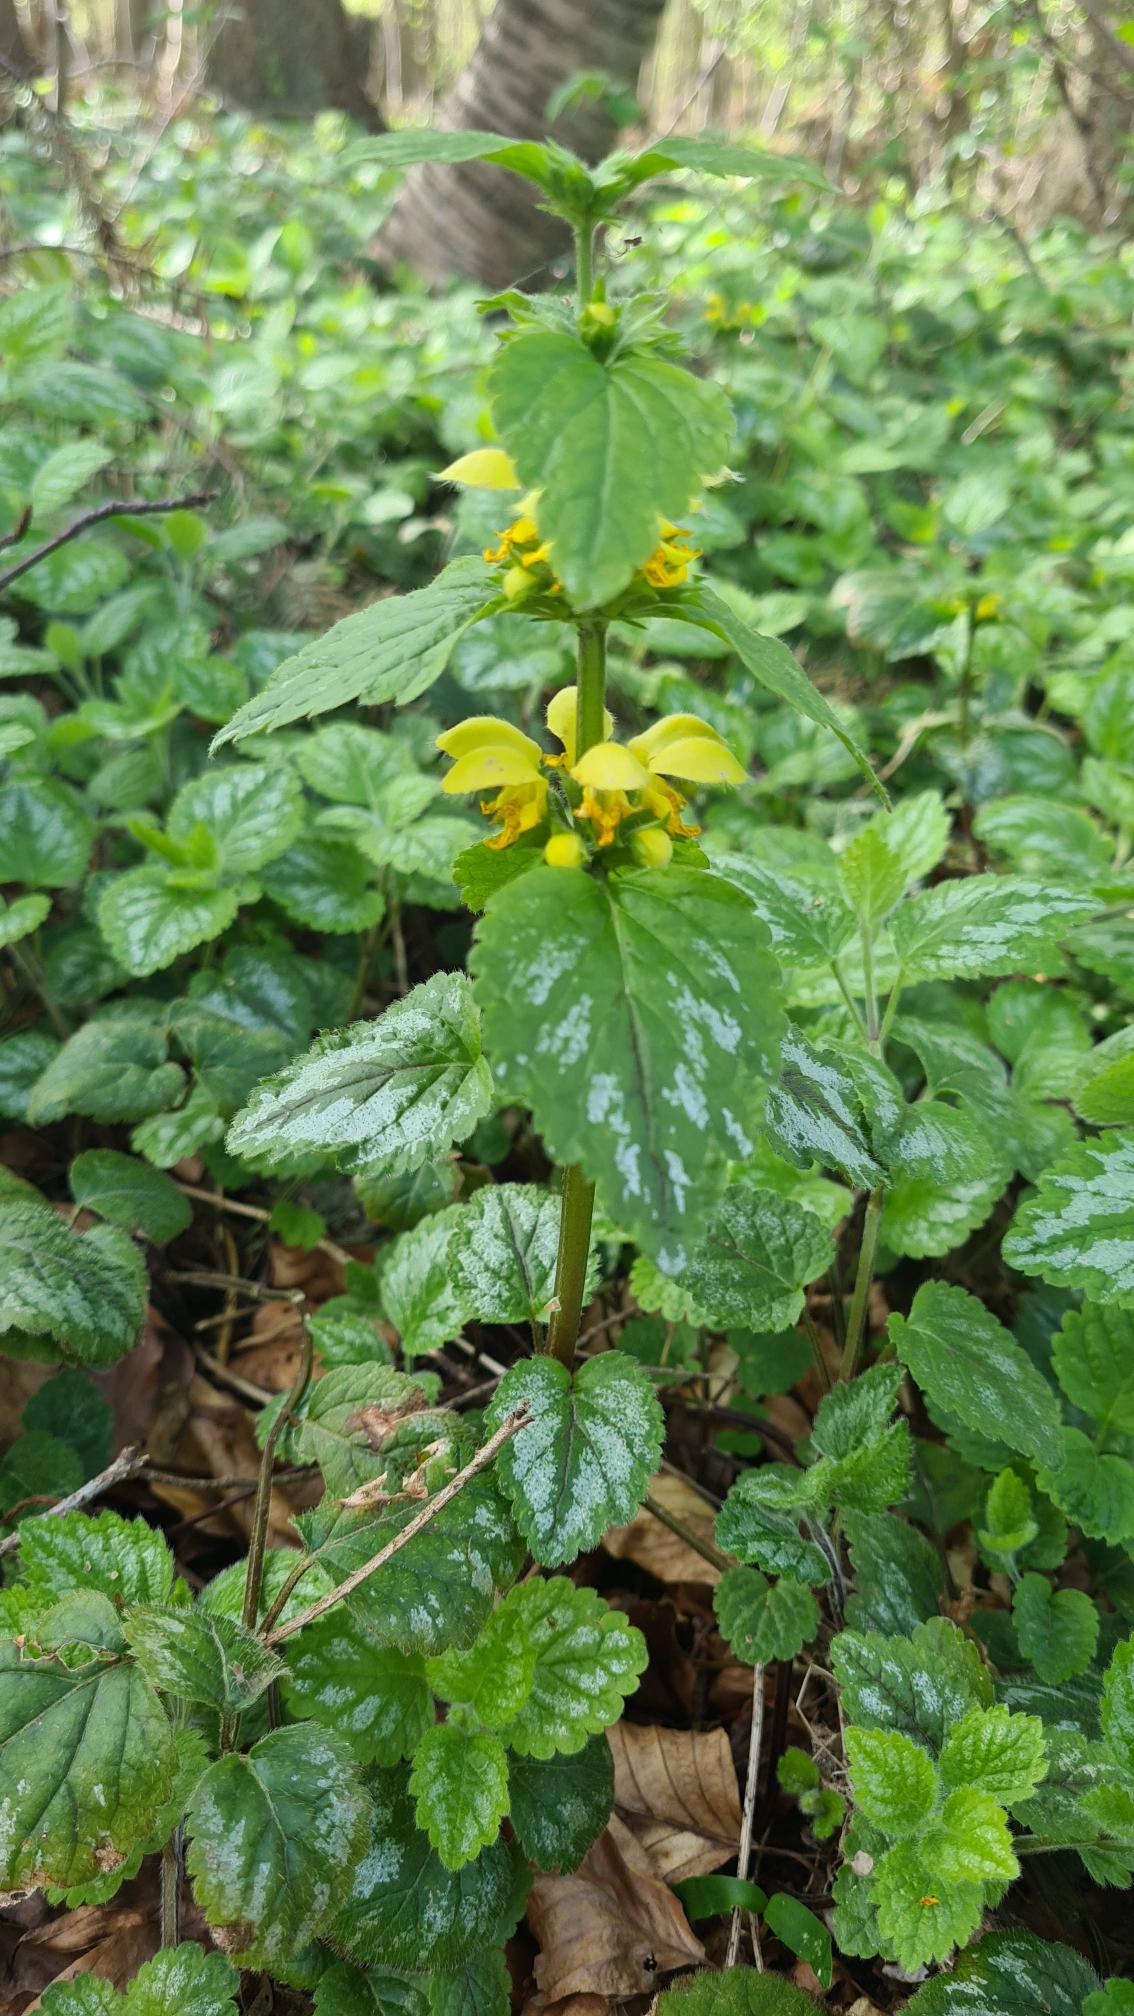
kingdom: Plantae
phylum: Tracheophyta
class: Magnoliopsida
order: Lamiales
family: Lamiaceae
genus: Lamium
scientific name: Lamium galeobdolon
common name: Have-guldnælde
